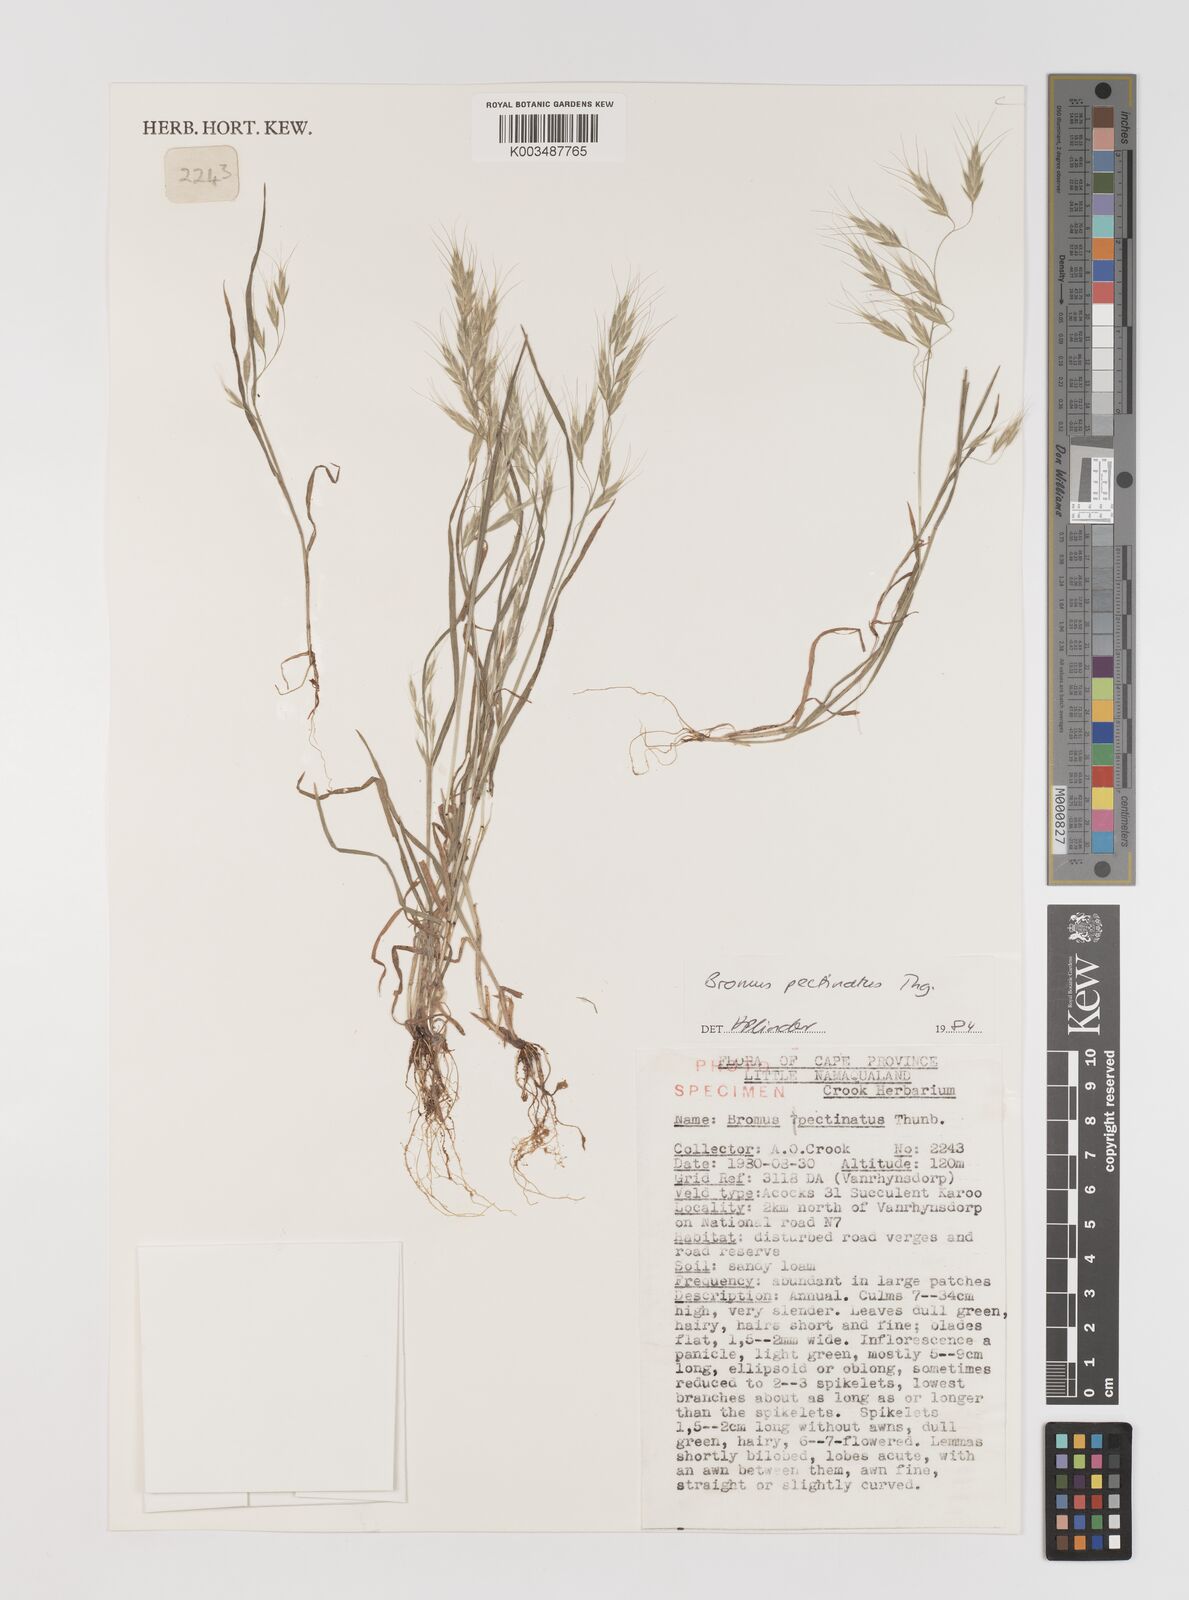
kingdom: Plantae
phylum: Tracheophyta
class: Liliopsida
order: Poales
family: Poaceae
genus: Bromus
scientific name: Bromus pectinatus
